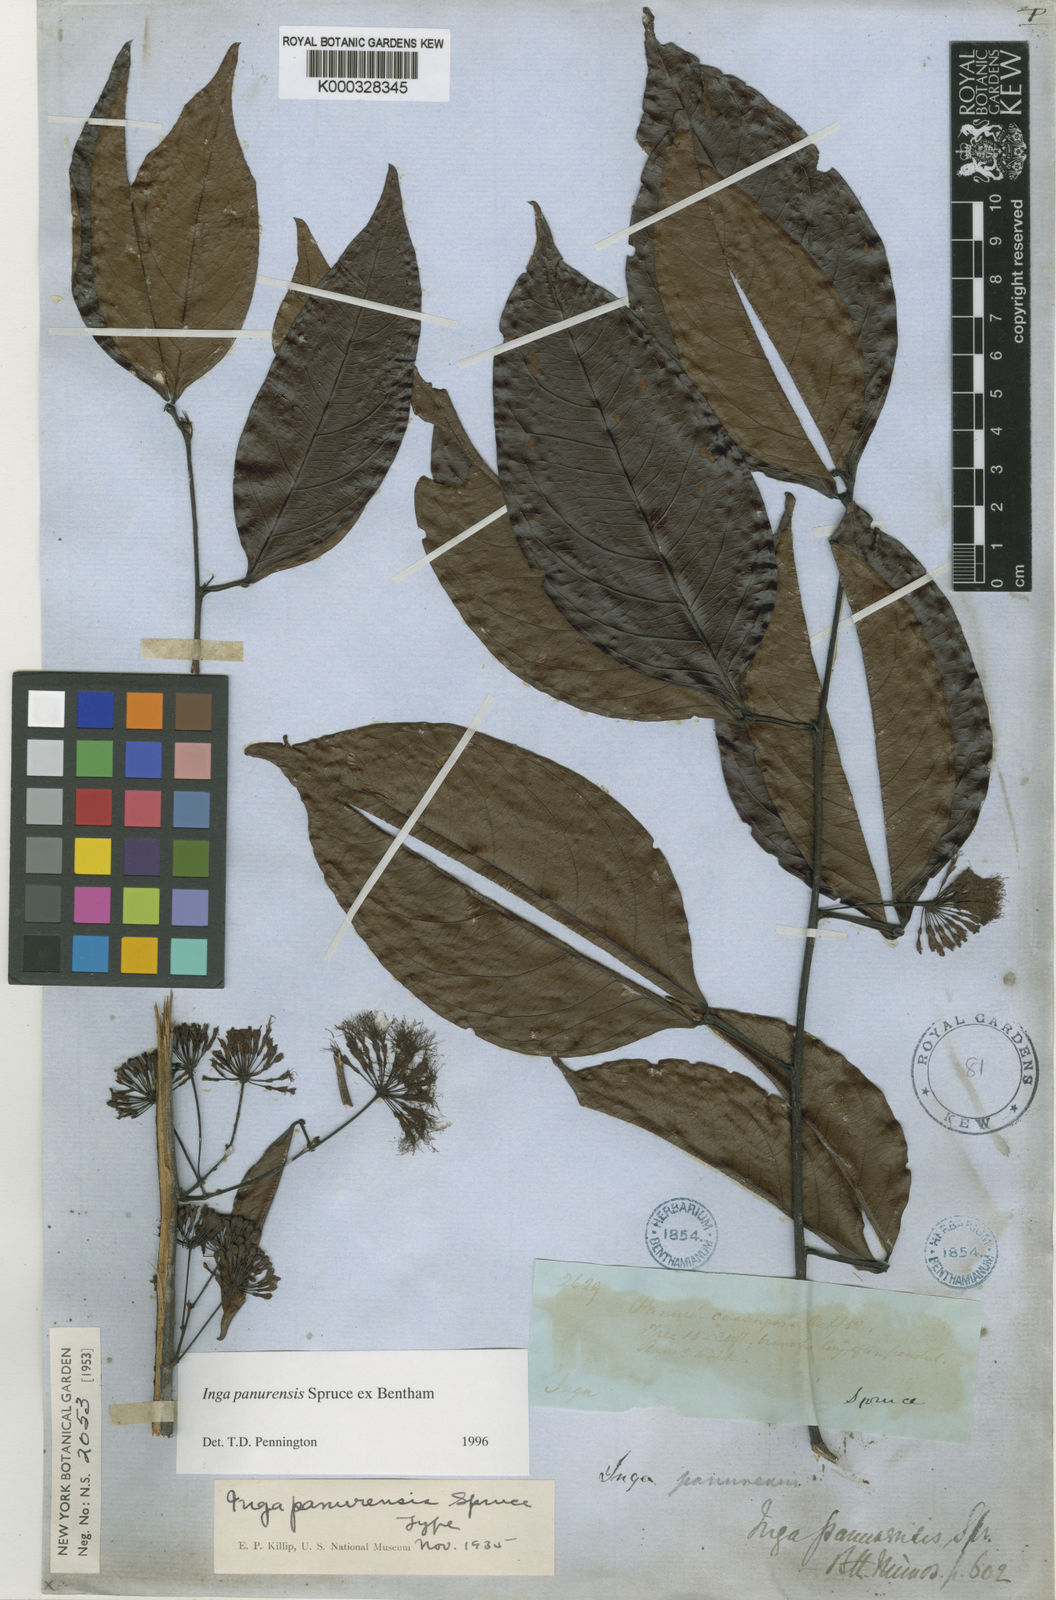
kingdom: Plantae
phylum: Tracheophyta
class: Magnoliopsida
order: Fabales
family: Fabaceae
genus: Inga
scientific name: Inga panurensis
